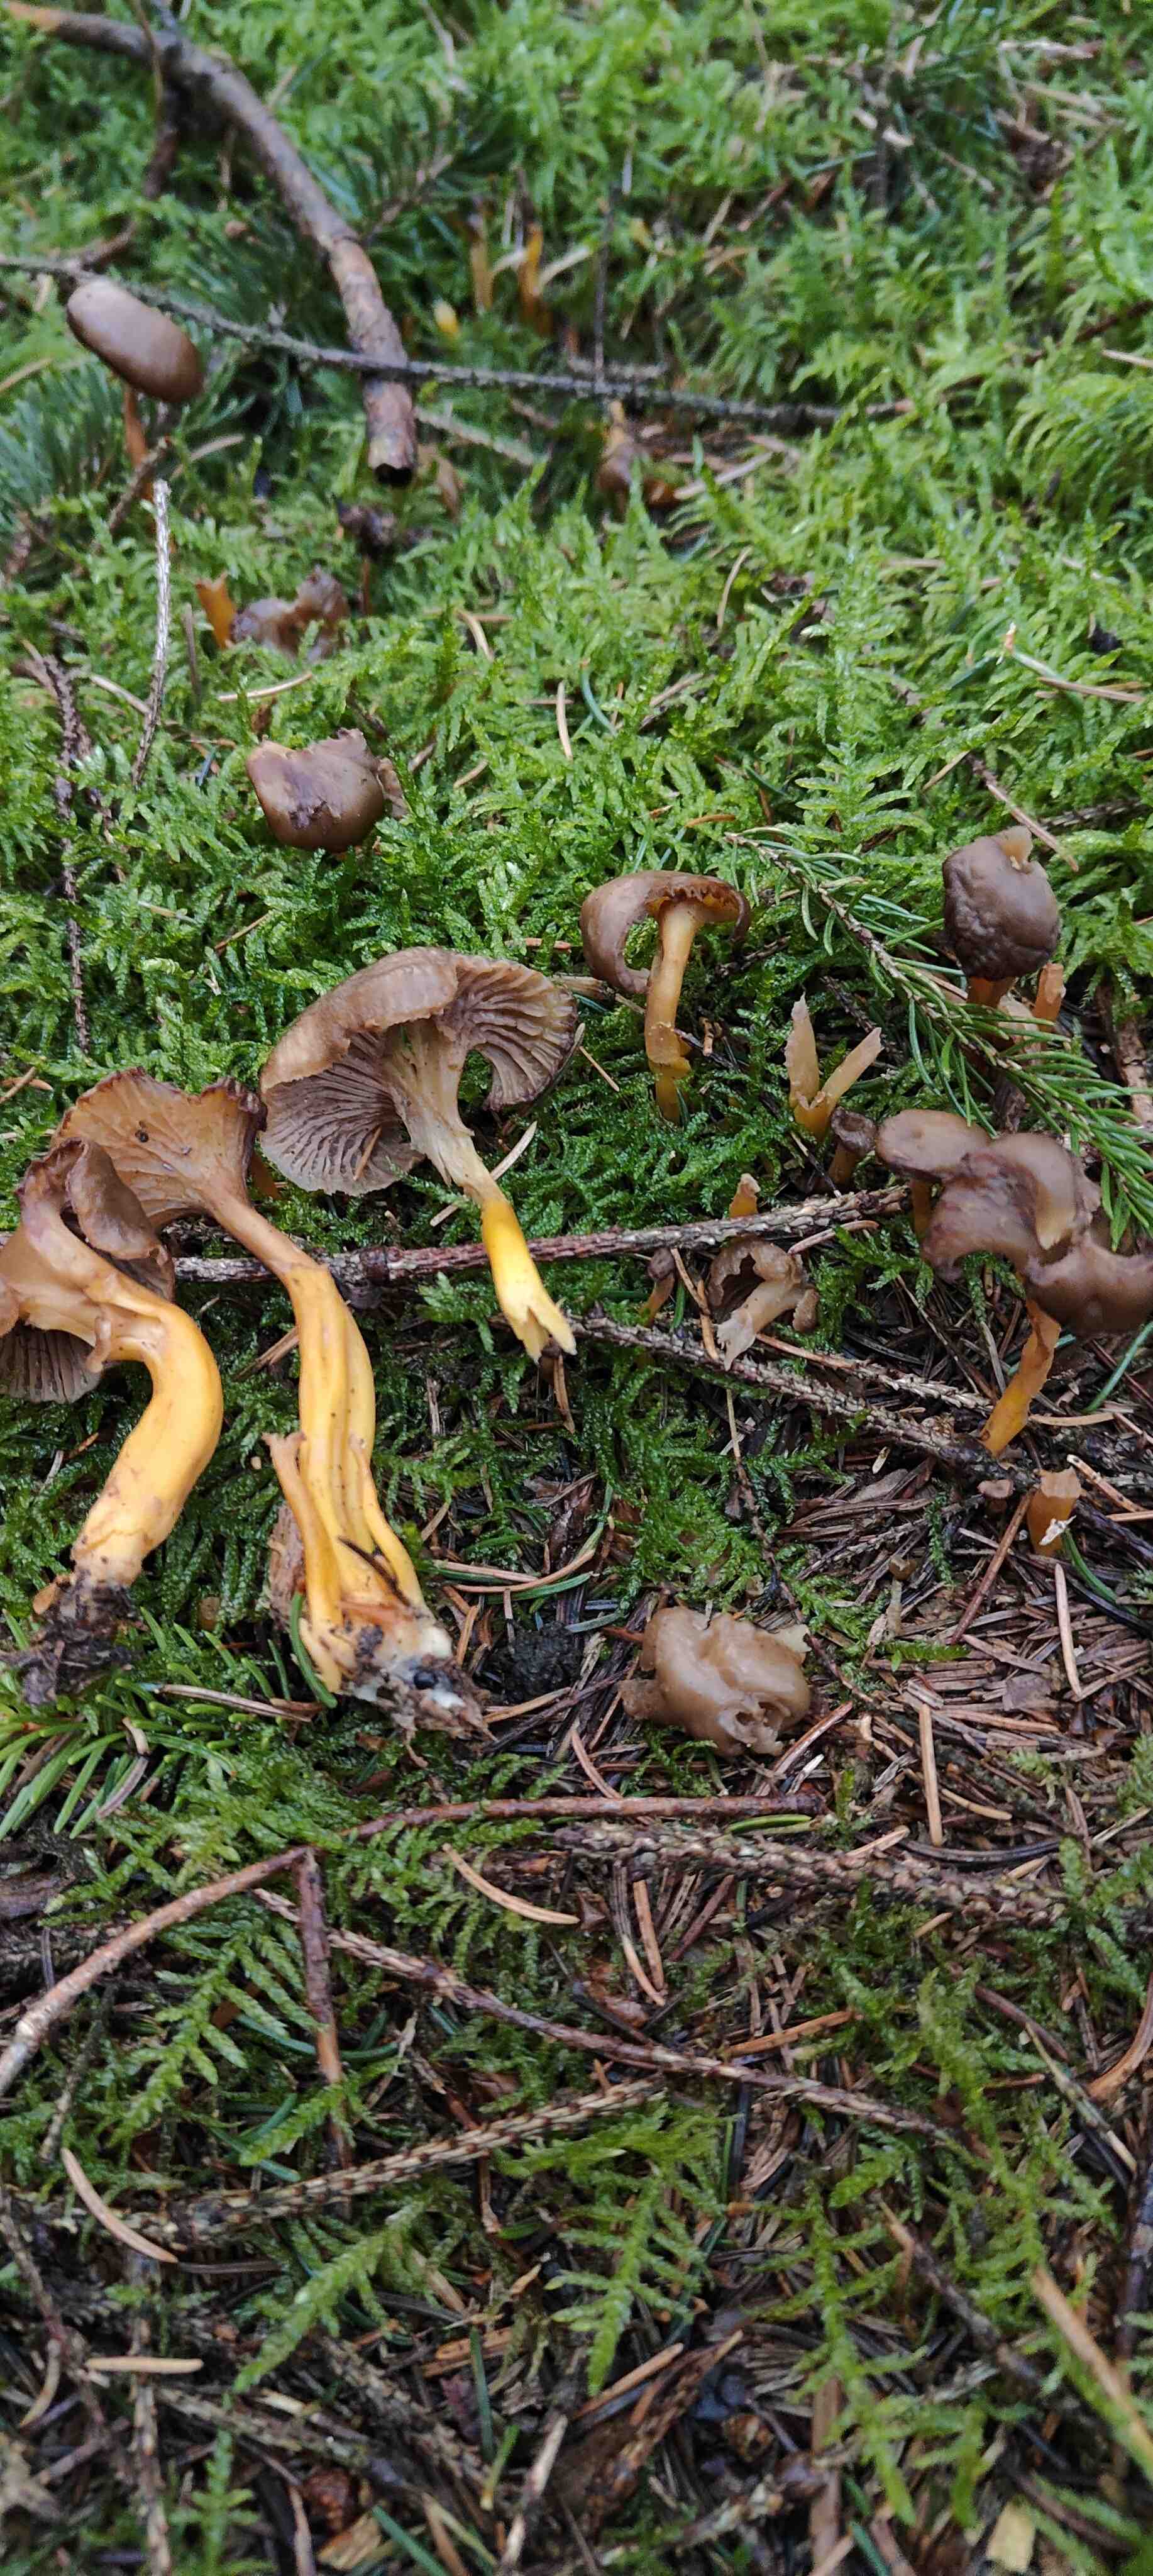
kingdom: Fungi
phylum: Basidiomycota
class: Agaricomycetes
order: Cantharellales
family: Hydnaceae
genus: Craterellus
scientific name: Craterellus tubaeformis
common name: tragt-kantarel
